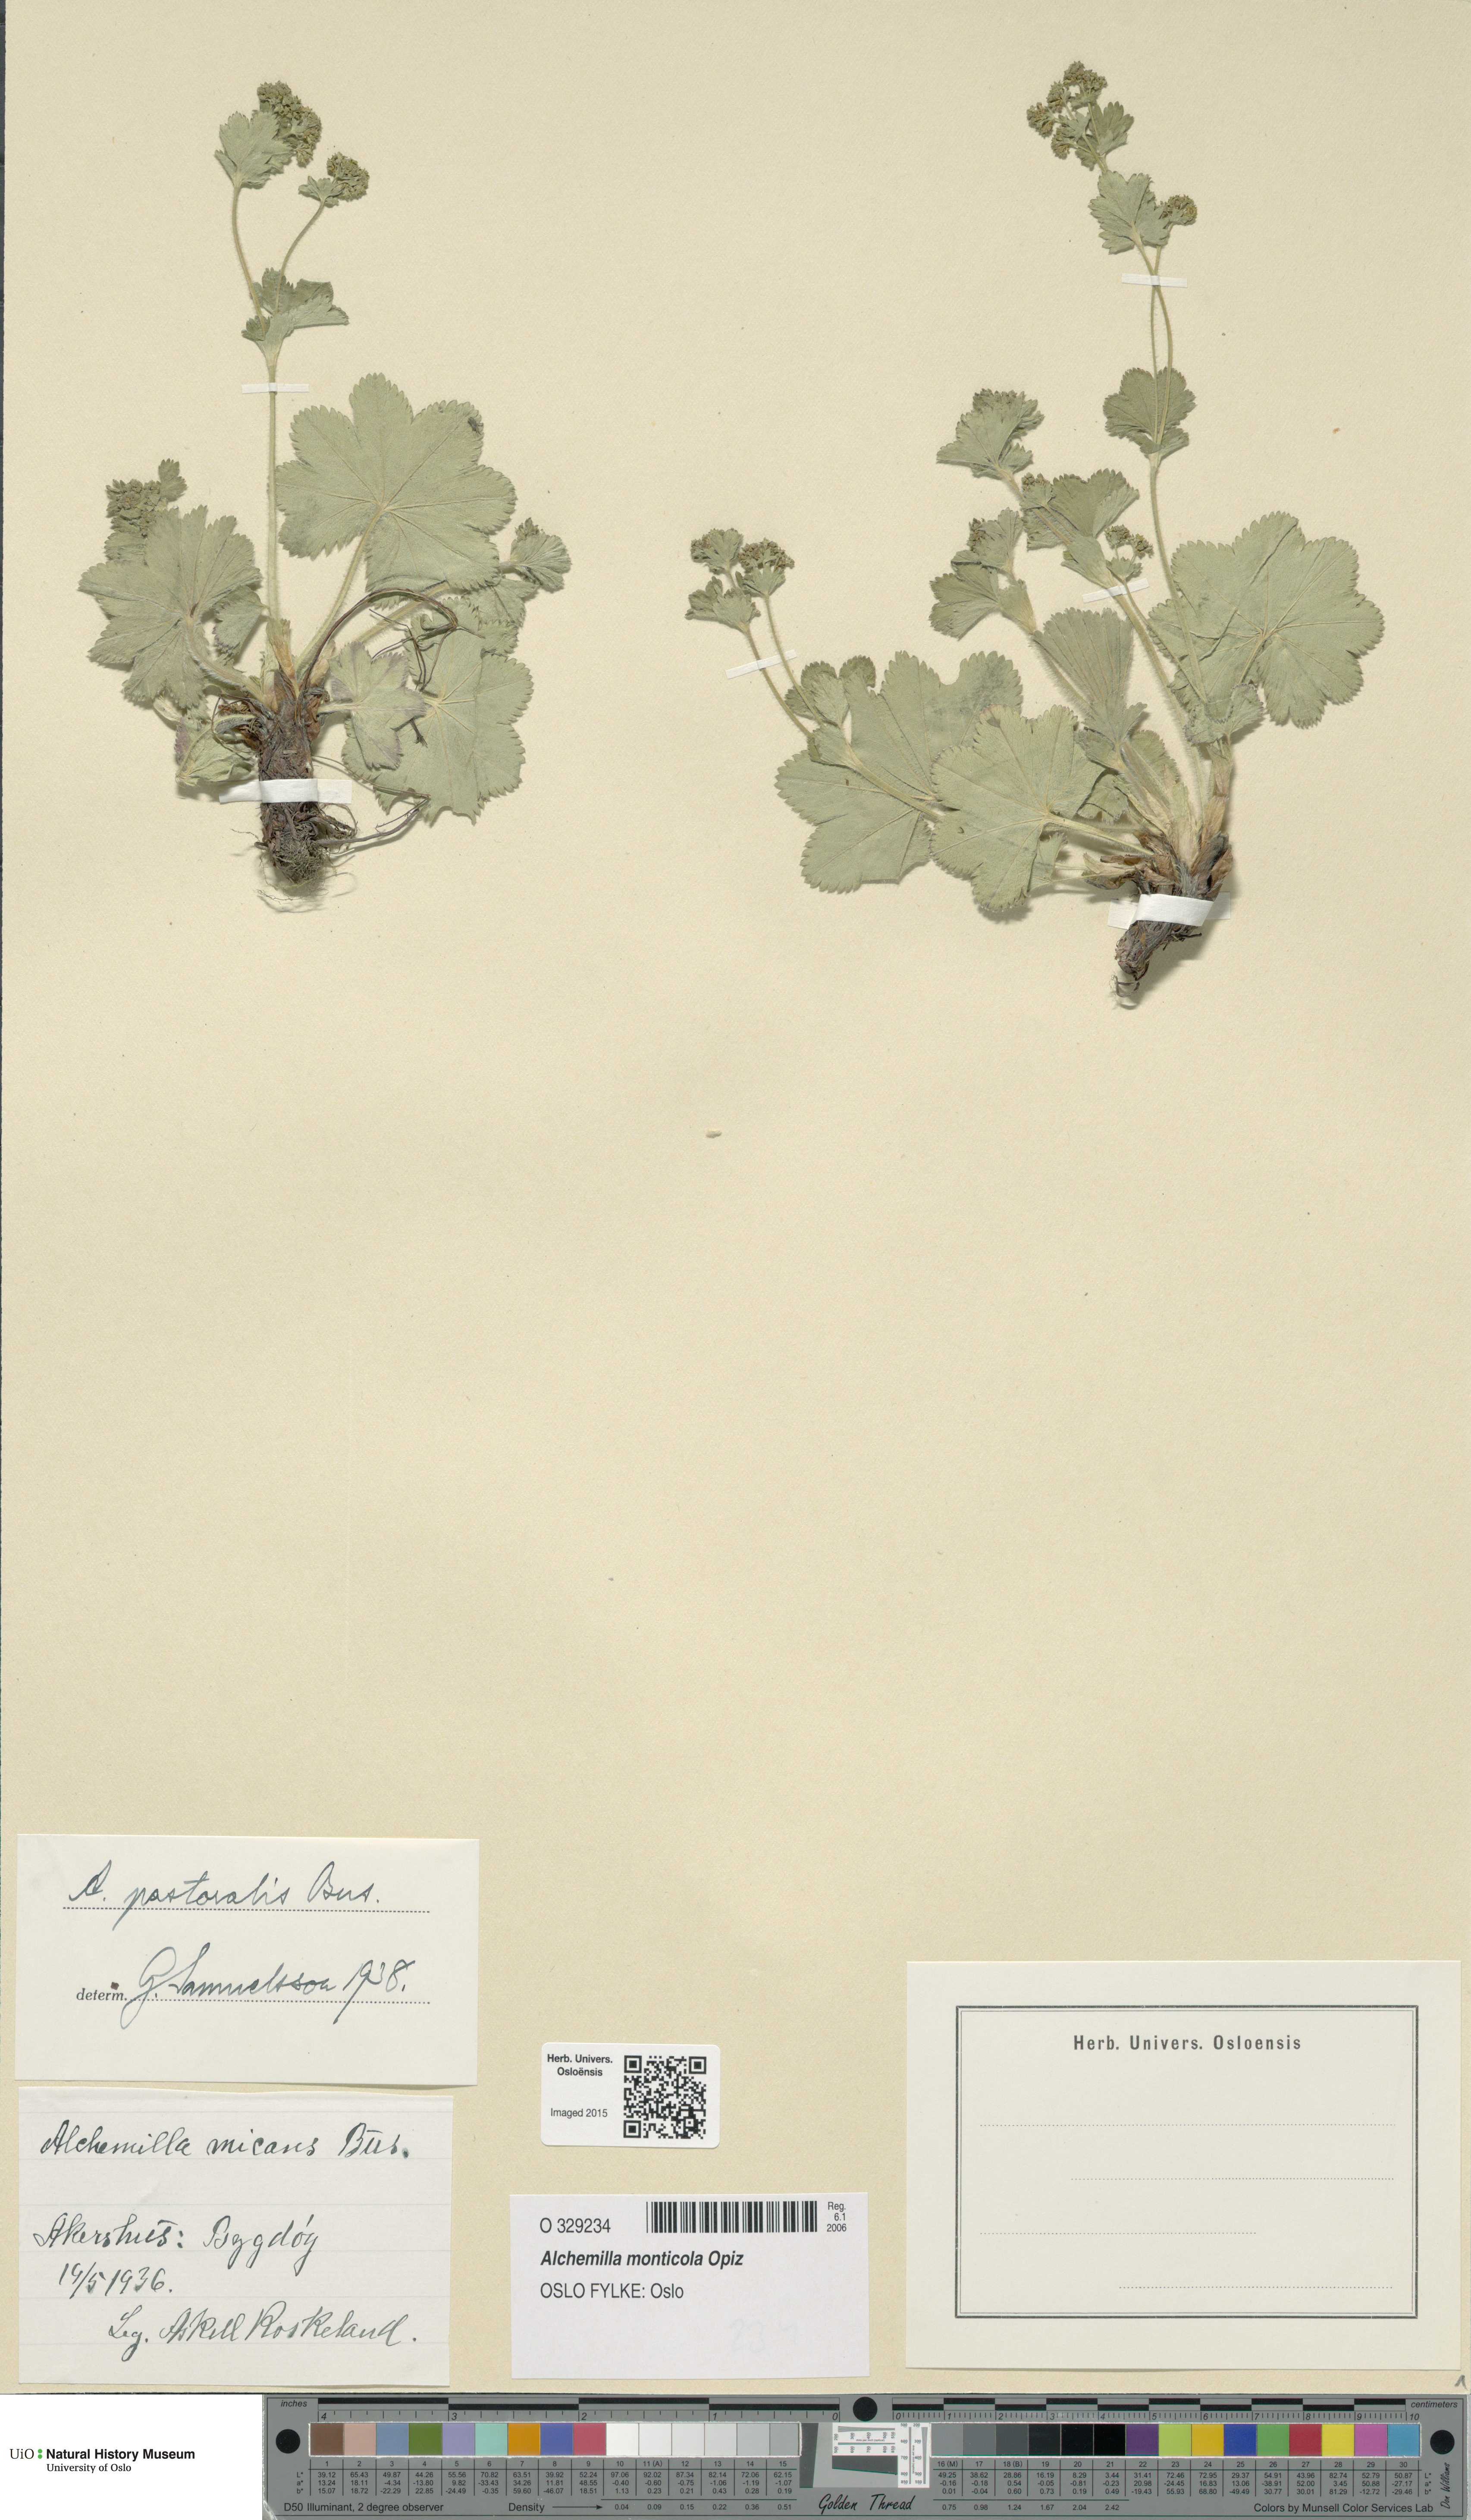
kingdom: Plantae
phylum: Tracheophyta
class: Magnoliopsida
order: Rosales
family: Rosaceae
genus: Alchemilla
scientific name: Alchemilla monticola
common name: Hairy lady's mantle
